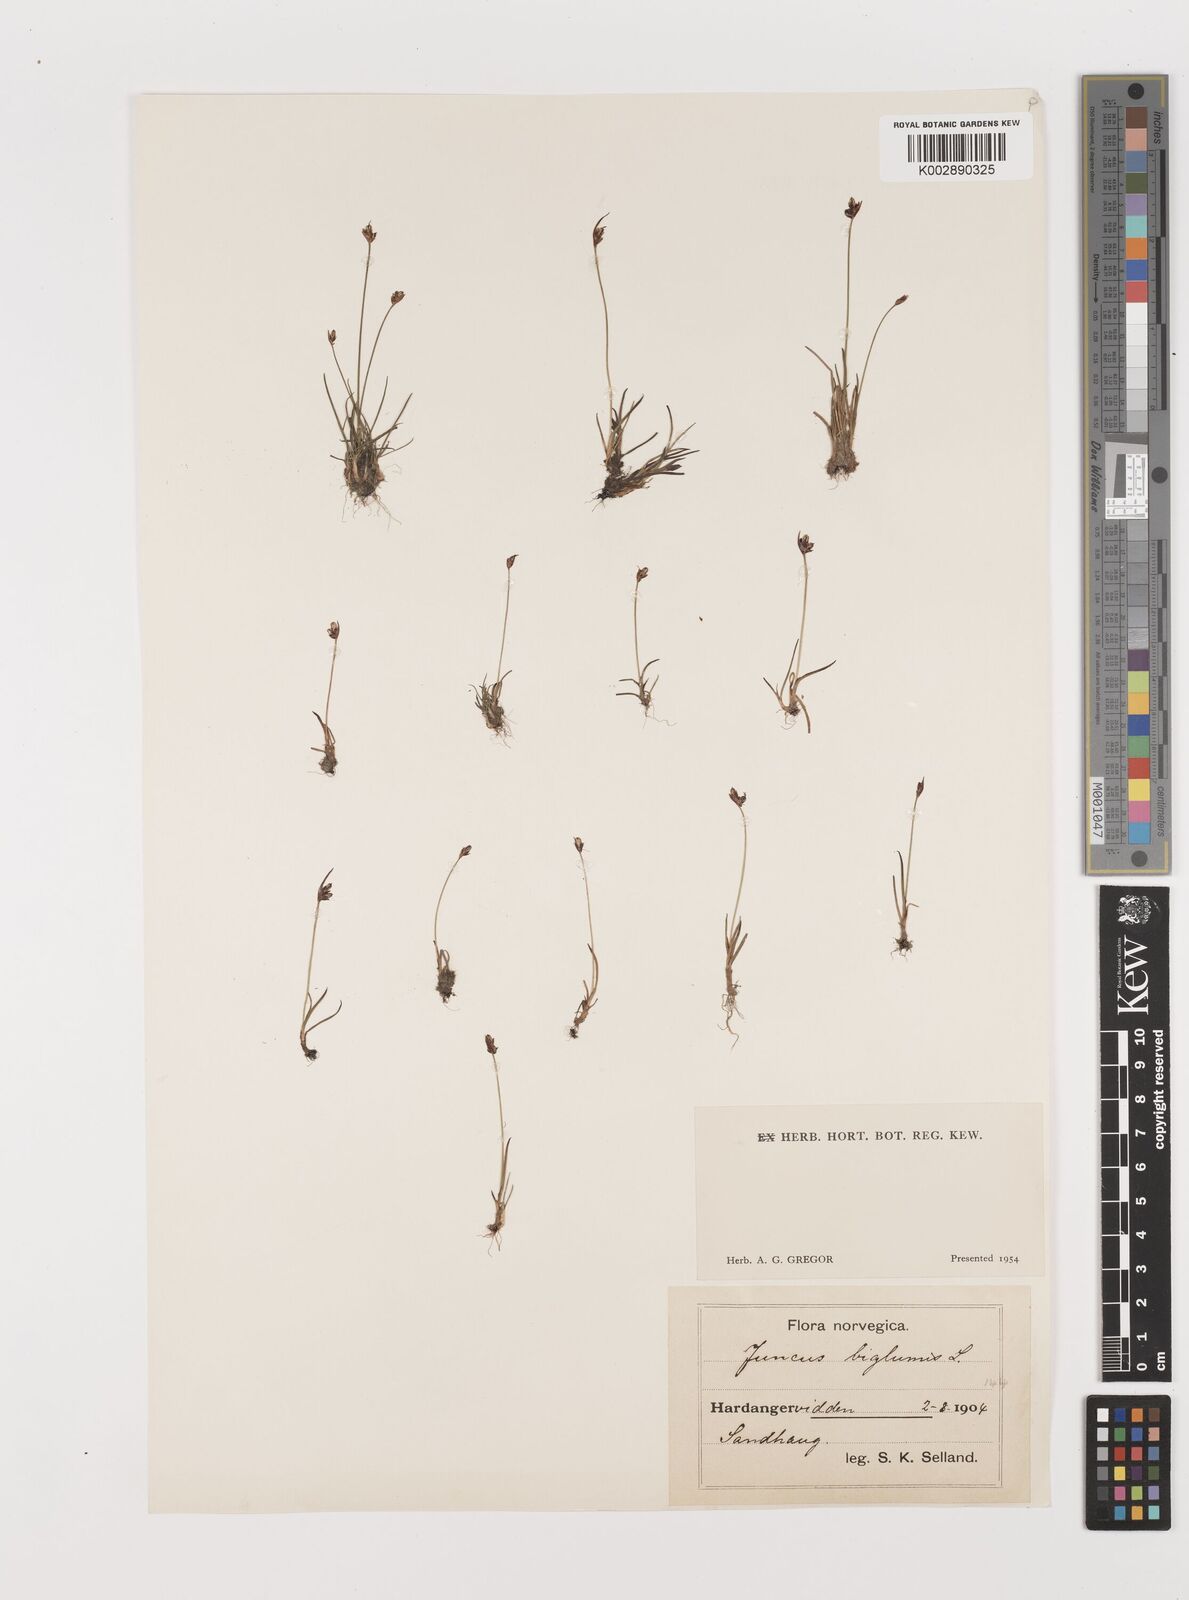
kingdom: Plantae
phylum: Tracheophyta
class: Liliopsida
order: Poales
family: Juncaceae
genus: Juncus
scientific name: Juncus biglumis
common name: Two-flowered rush
